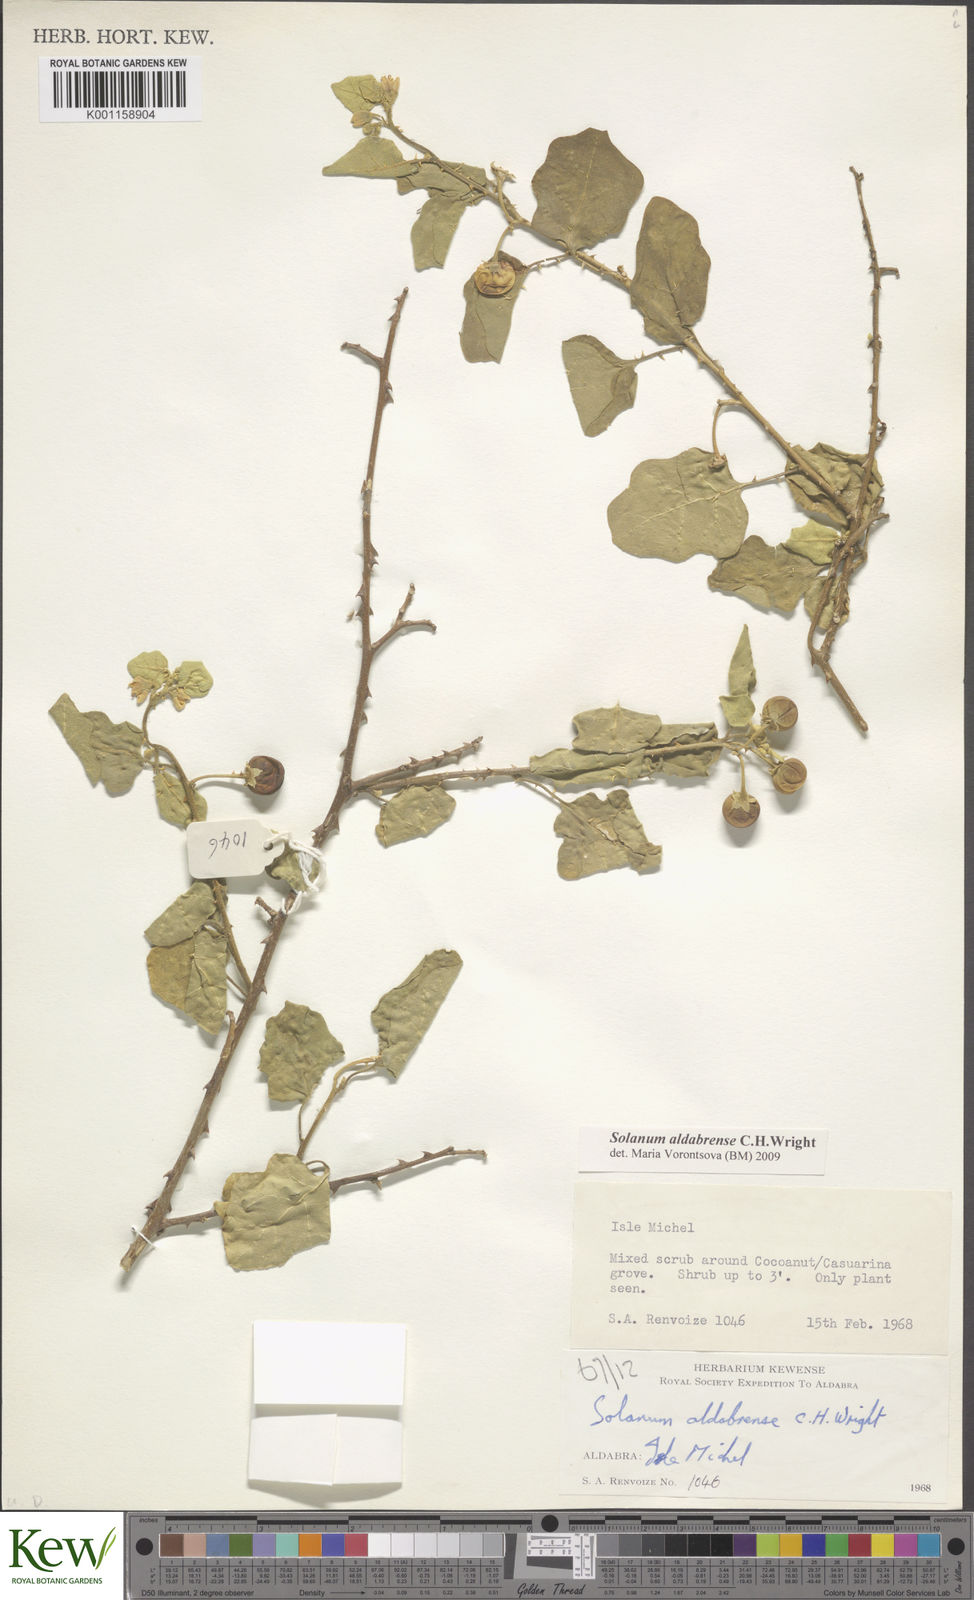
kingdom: Plantae
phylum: Tracheophyta
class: Magnoliopsida
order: Solanales
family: Solanaceae
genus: Solanum
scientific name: Solanum aldabrense
